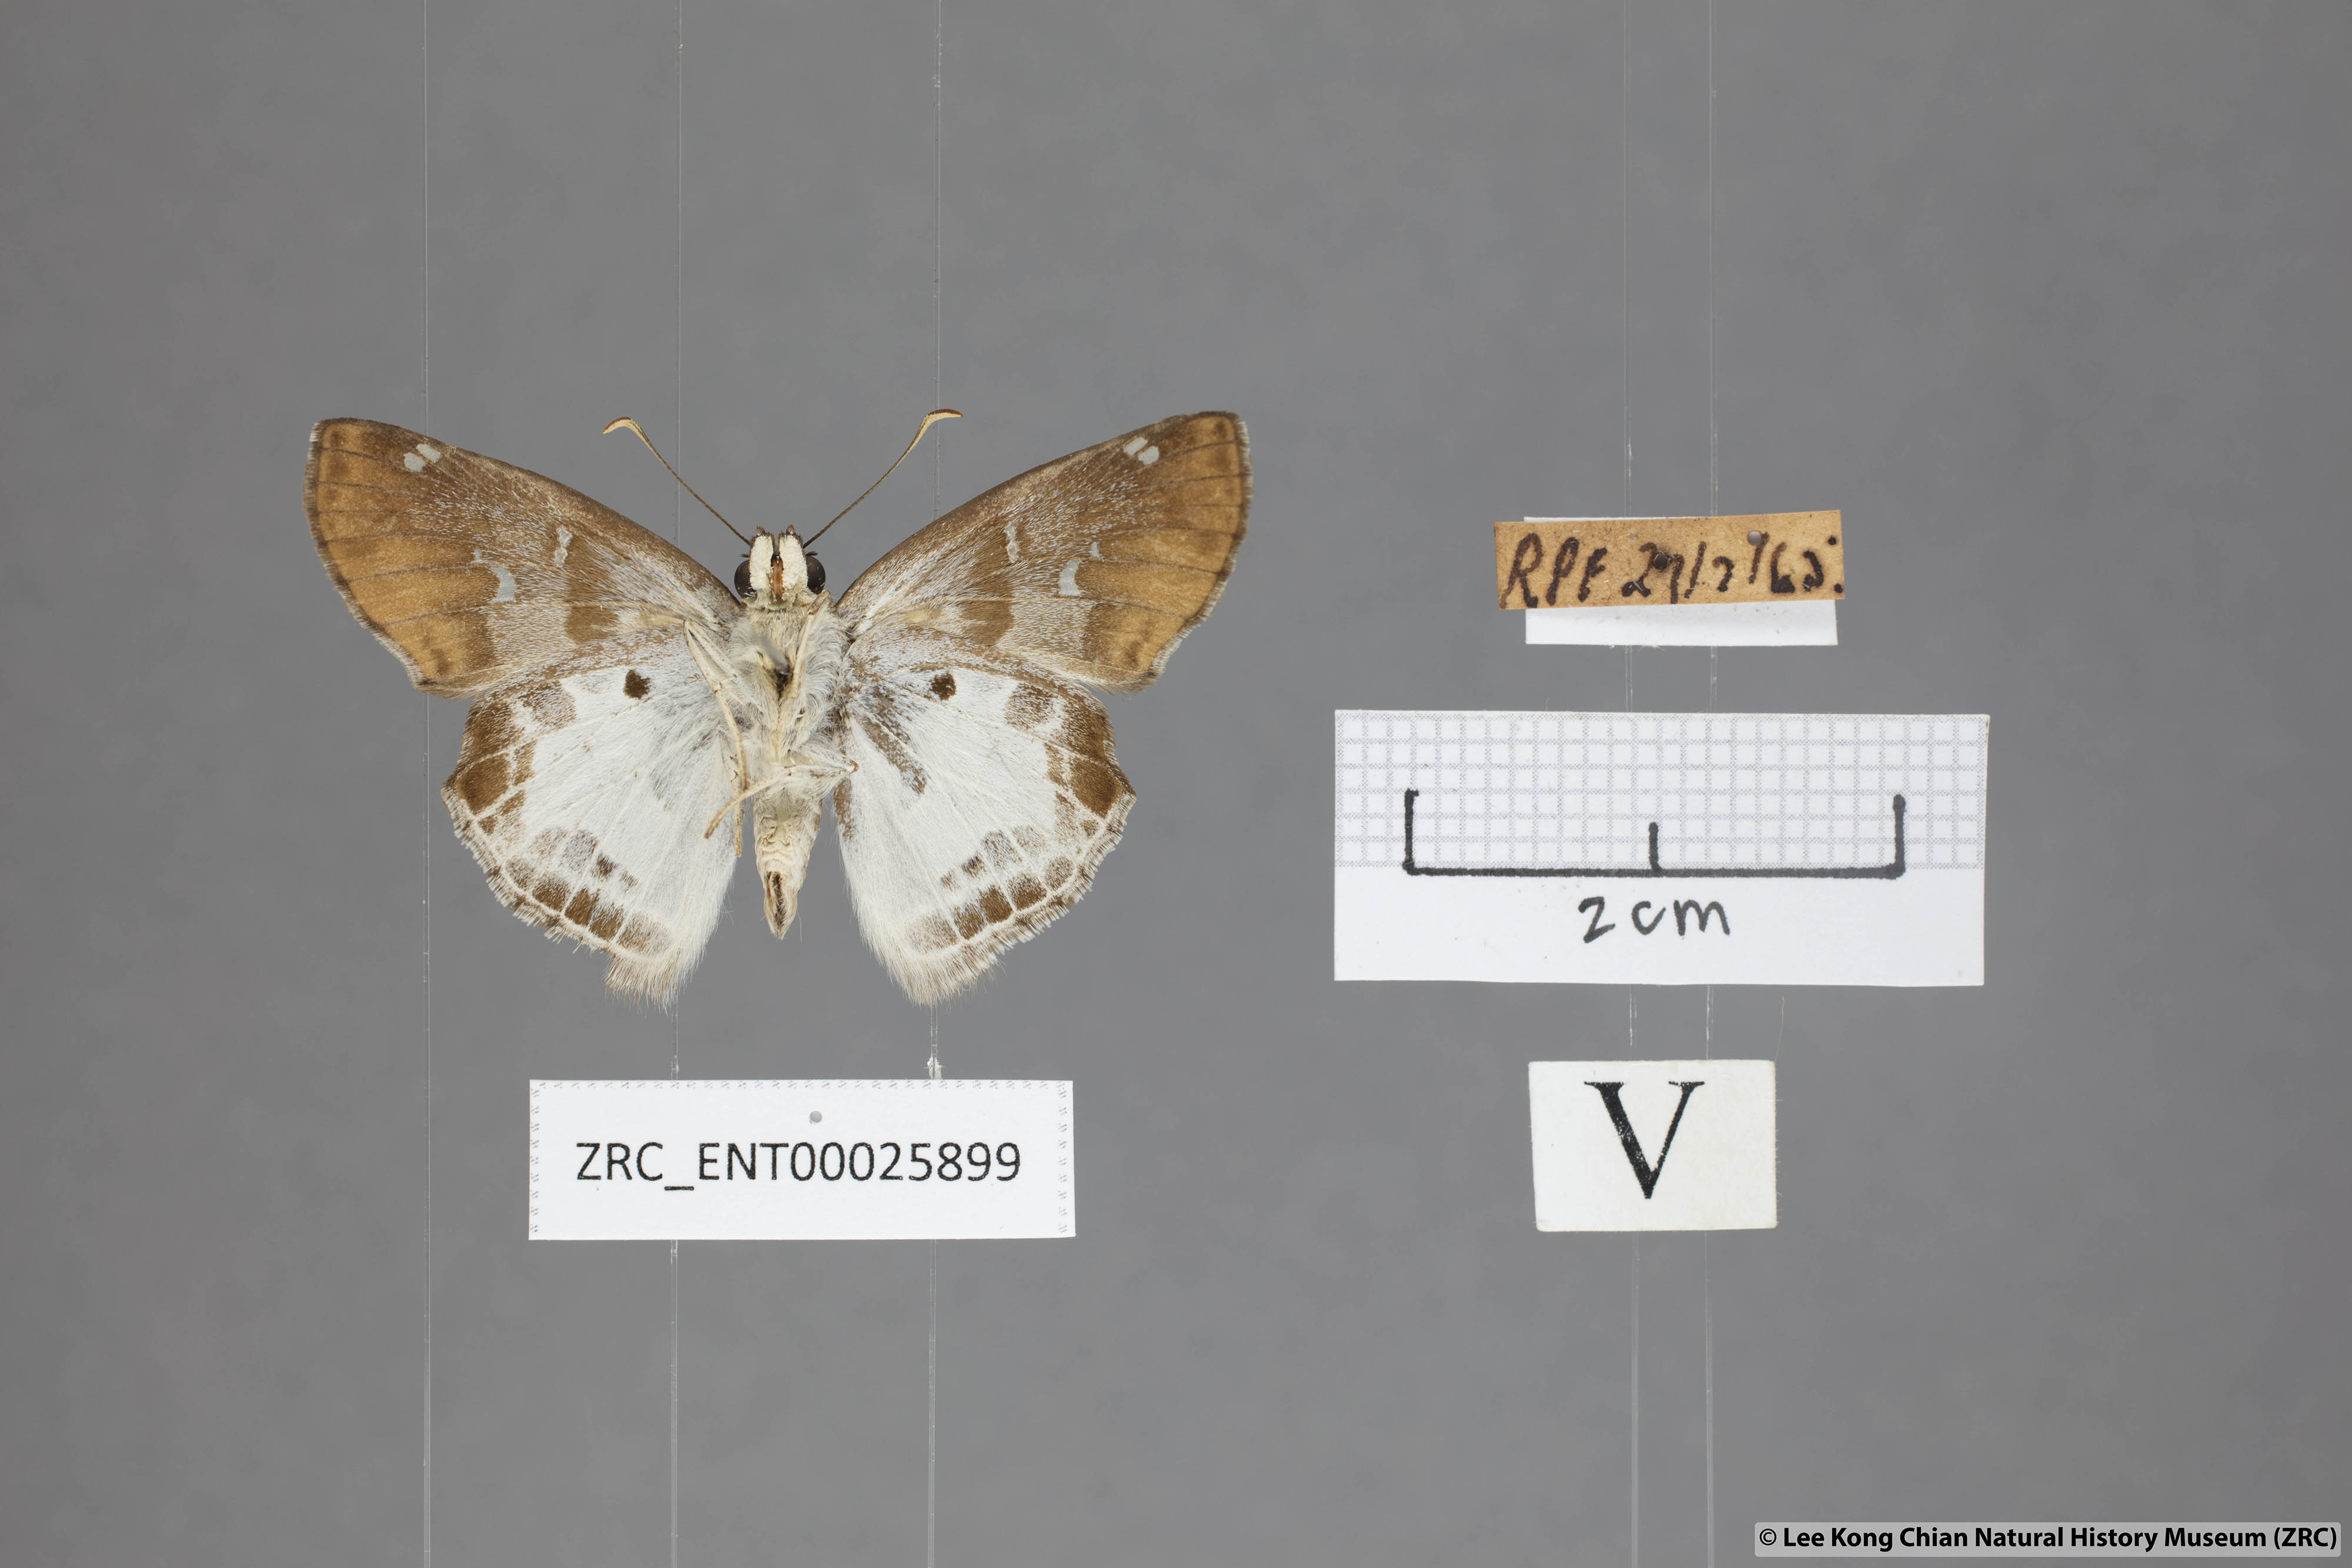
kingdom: Animalia
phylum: Arthropoda
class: Insecta
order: Lepidoptera
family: Hesperiidae
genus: Odontoptilum
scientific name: Odontoptilum angulata
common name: Chestnut banded angle
